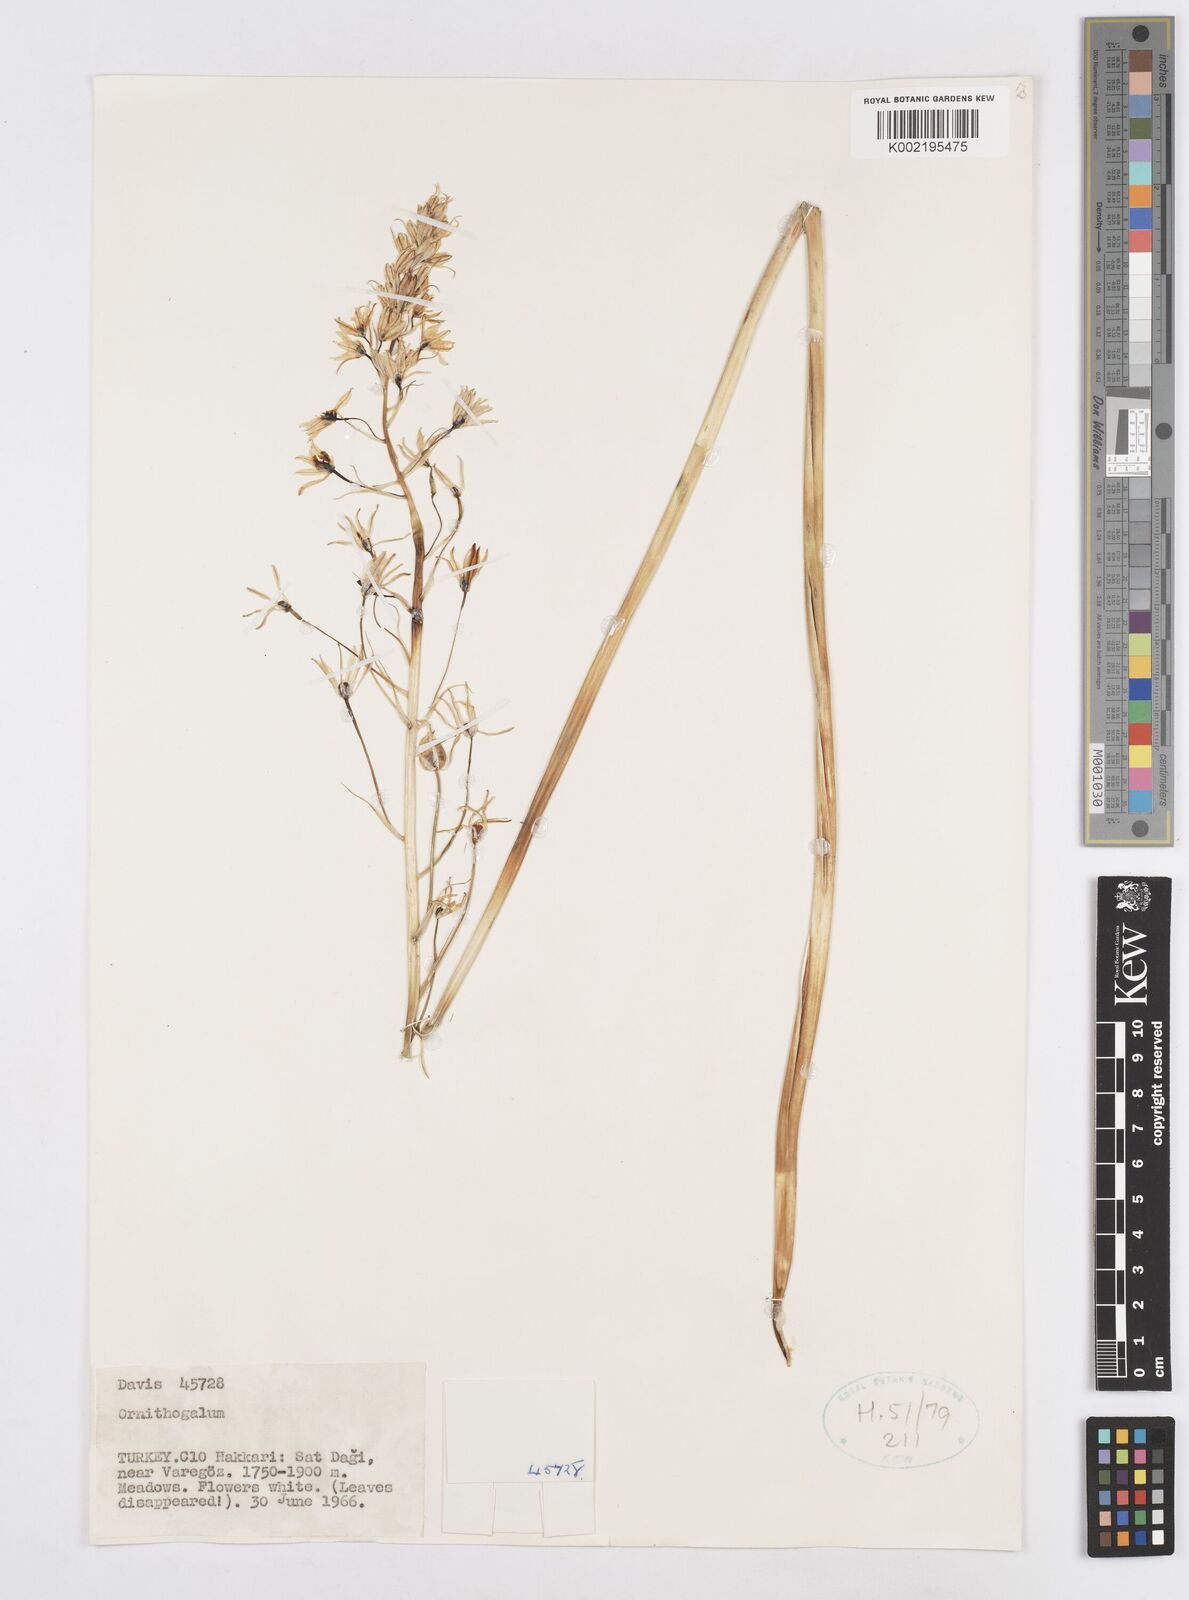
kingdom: Plantae
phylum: Tracheophyta
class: Liliopsida
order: Asparagales
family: Asparagaceae
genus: Ornithogalum
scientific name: Ornithogalum
